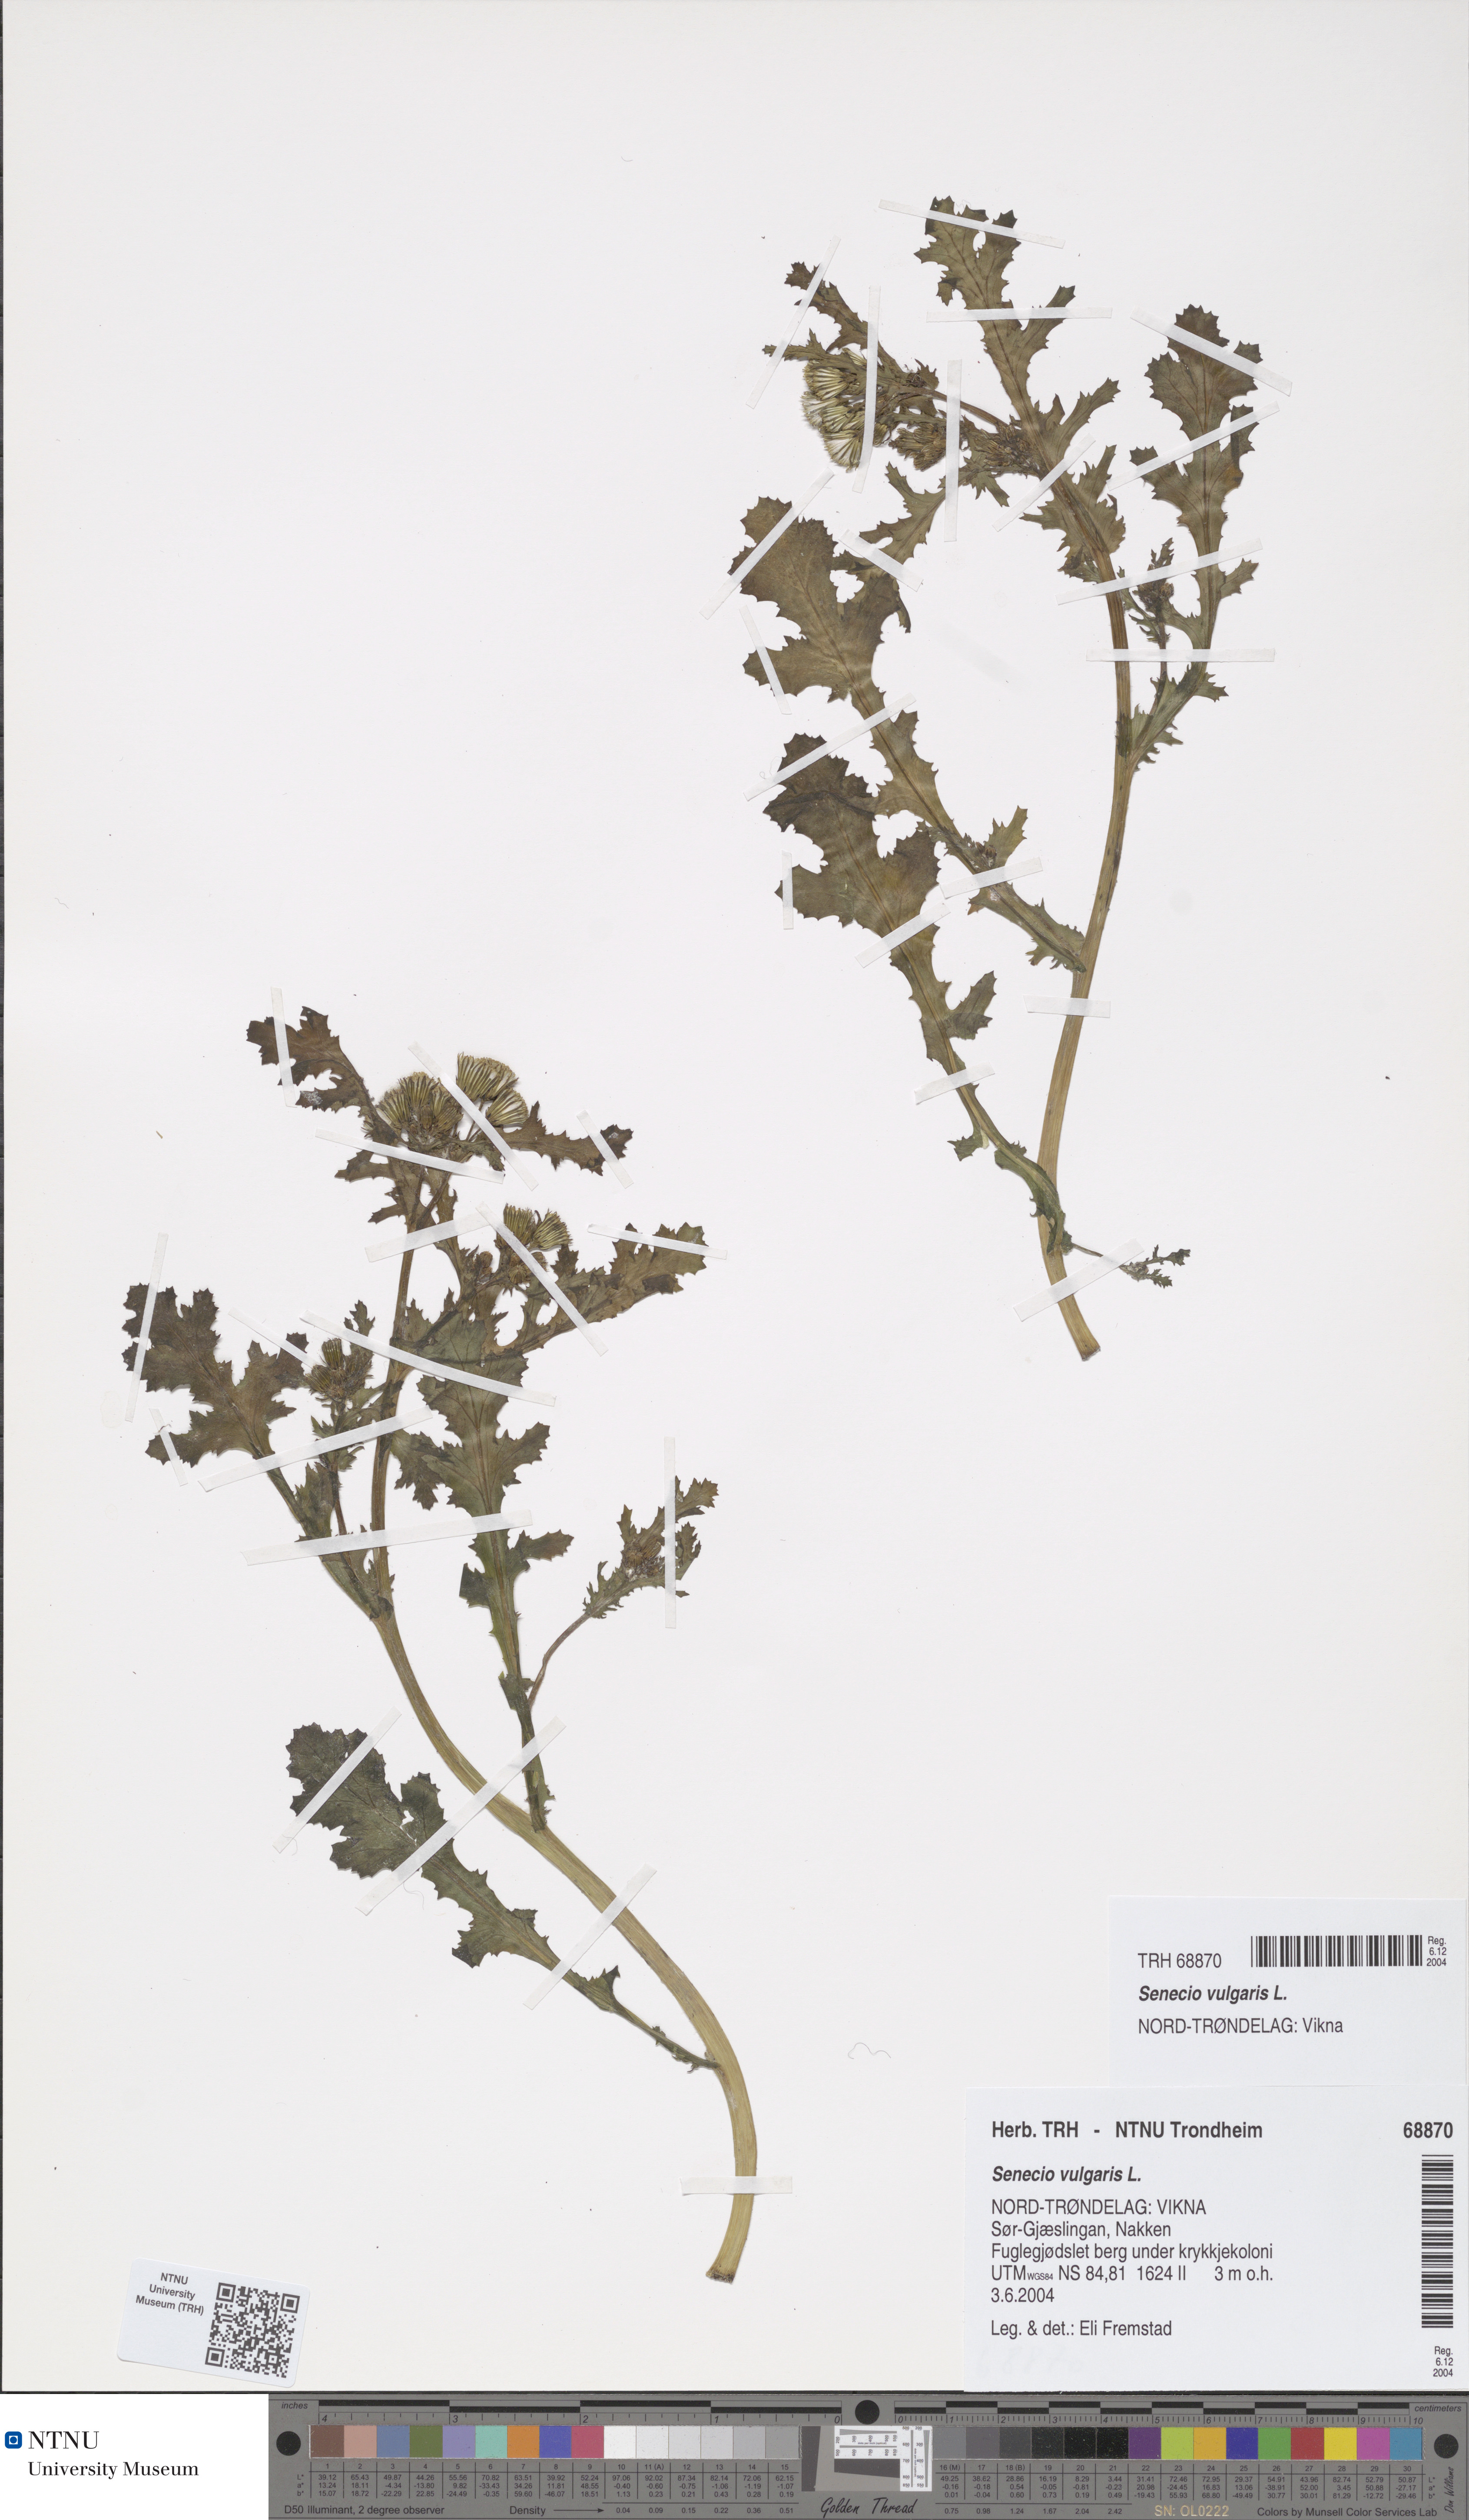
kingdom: Plantae
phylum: Tracheophyta
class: Magnoliopsida
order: Asterales
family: Asteraceae
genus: Senecio
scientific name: Senecio vulgaris
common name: Old-man-in-the-spring
